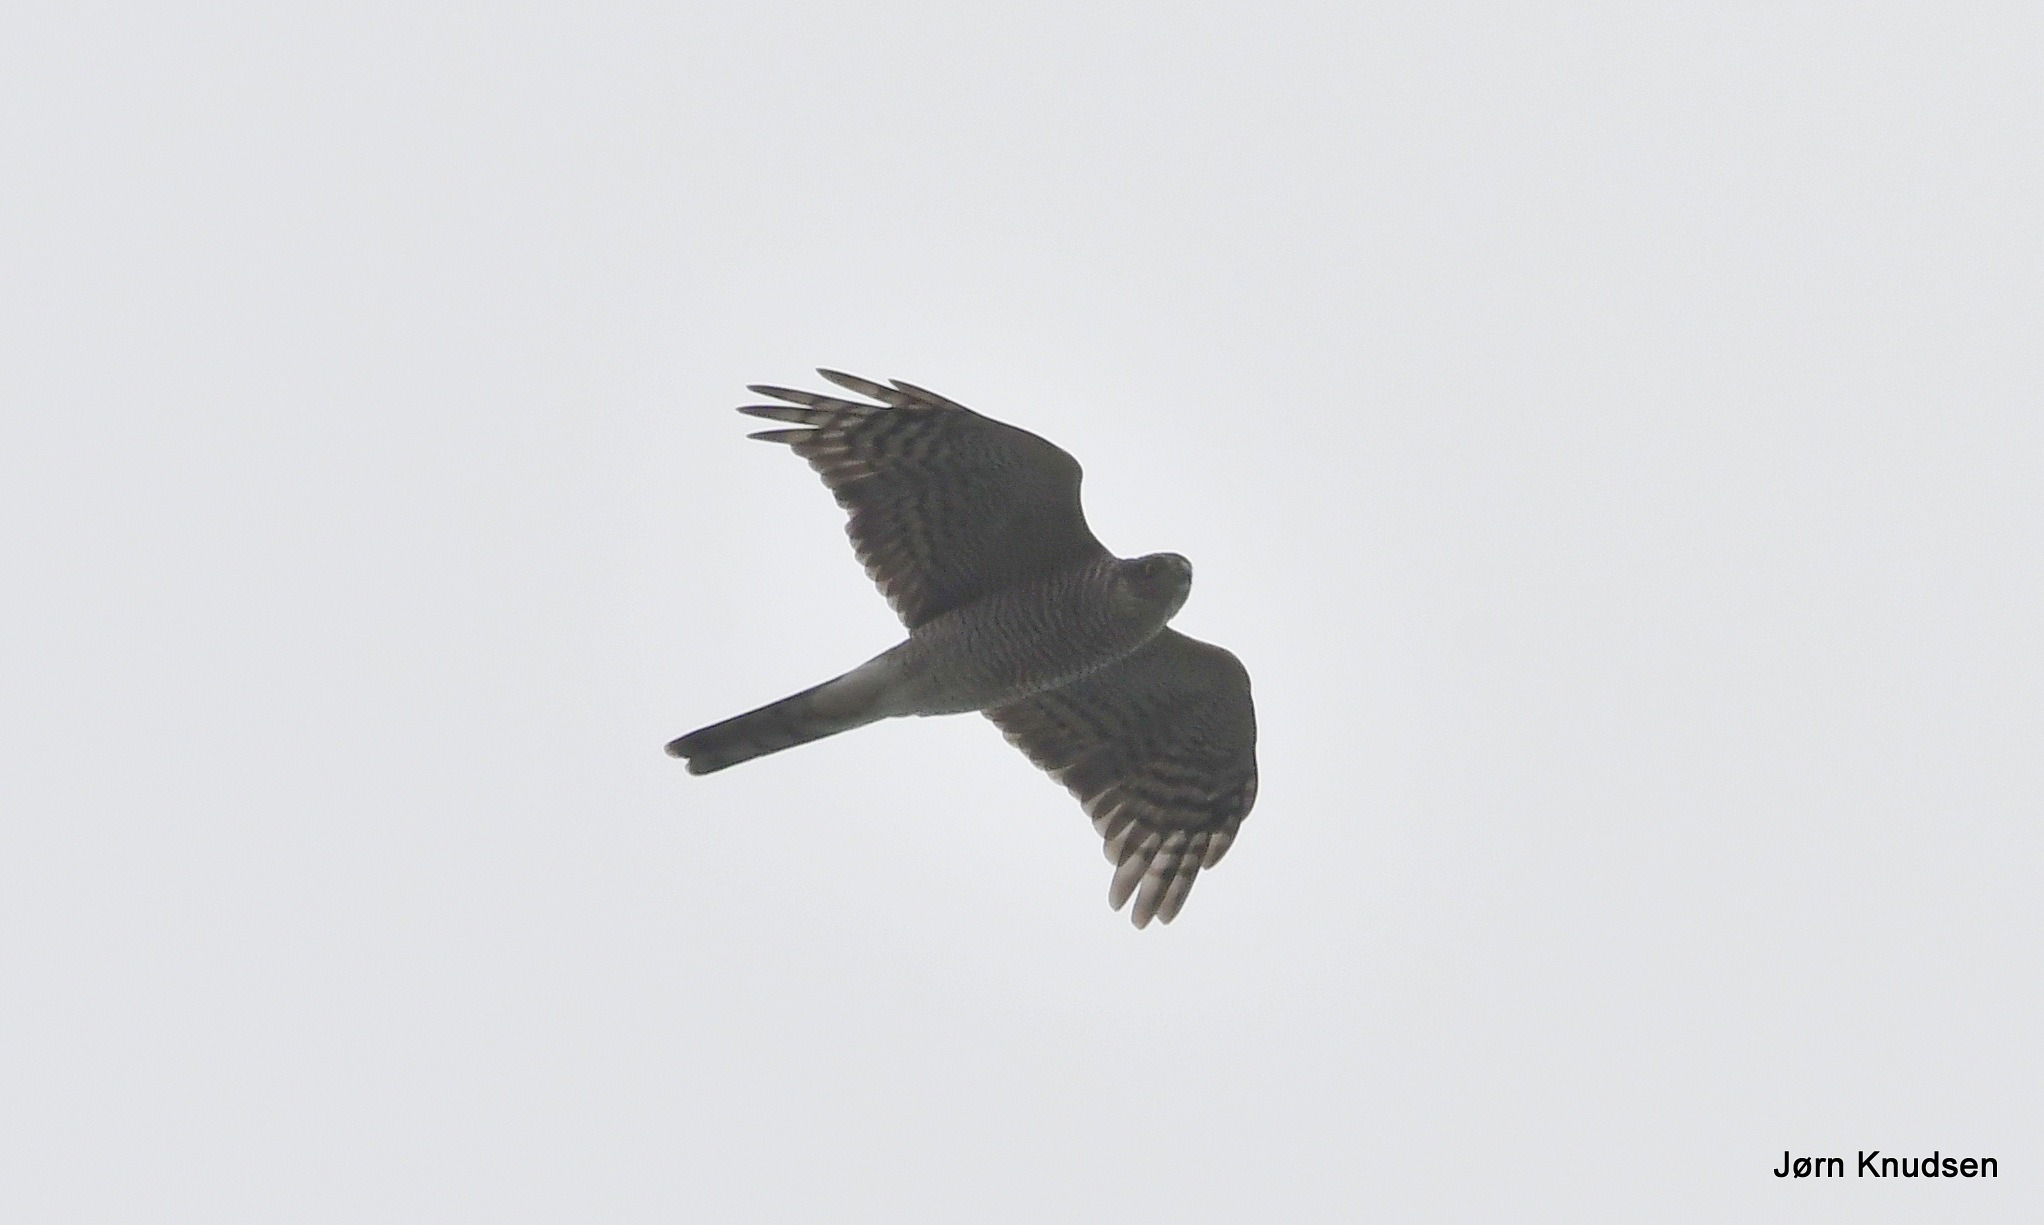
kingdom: Animalia
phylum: Chordata
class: Aves
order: Accipitriformes
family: Accipitridae
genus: Accipiter
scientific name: Accipiter nisus
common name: Spurvehøg
